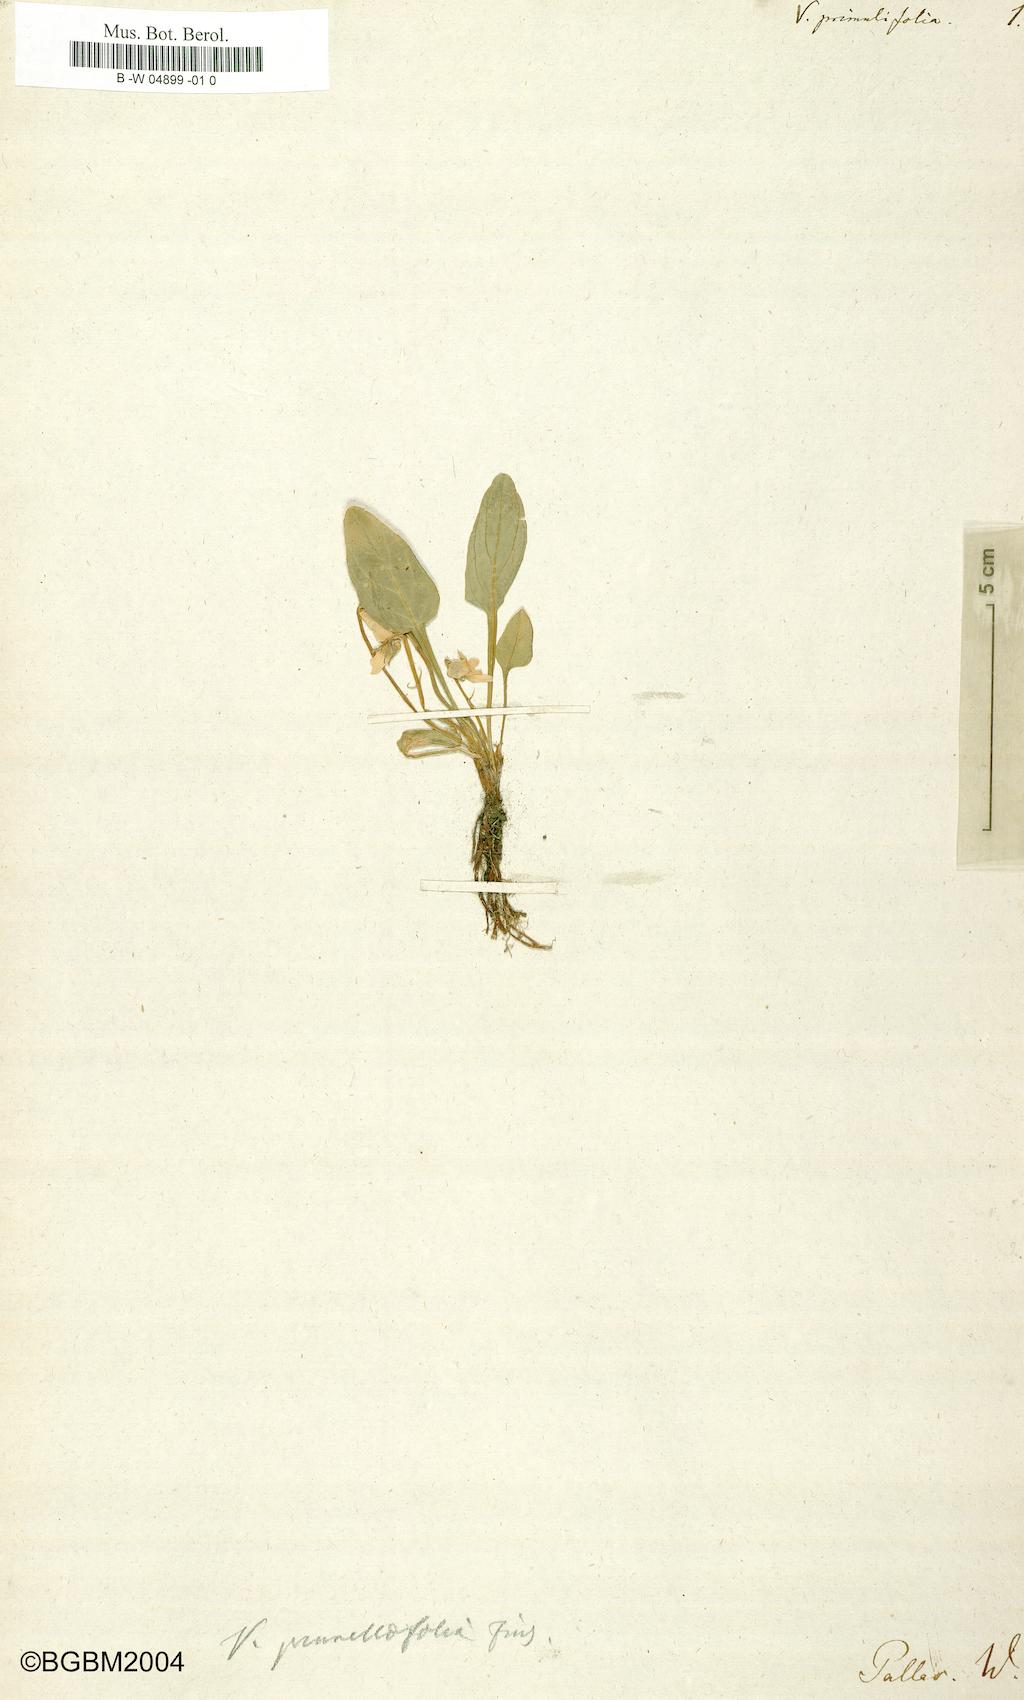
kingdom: Plantae
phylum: Tracheophyta
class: Magnoliopsida
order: Malpighiales
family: Violaceae
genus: Viola
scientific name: Viola primulifolia
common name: Primrose-leaf violet
